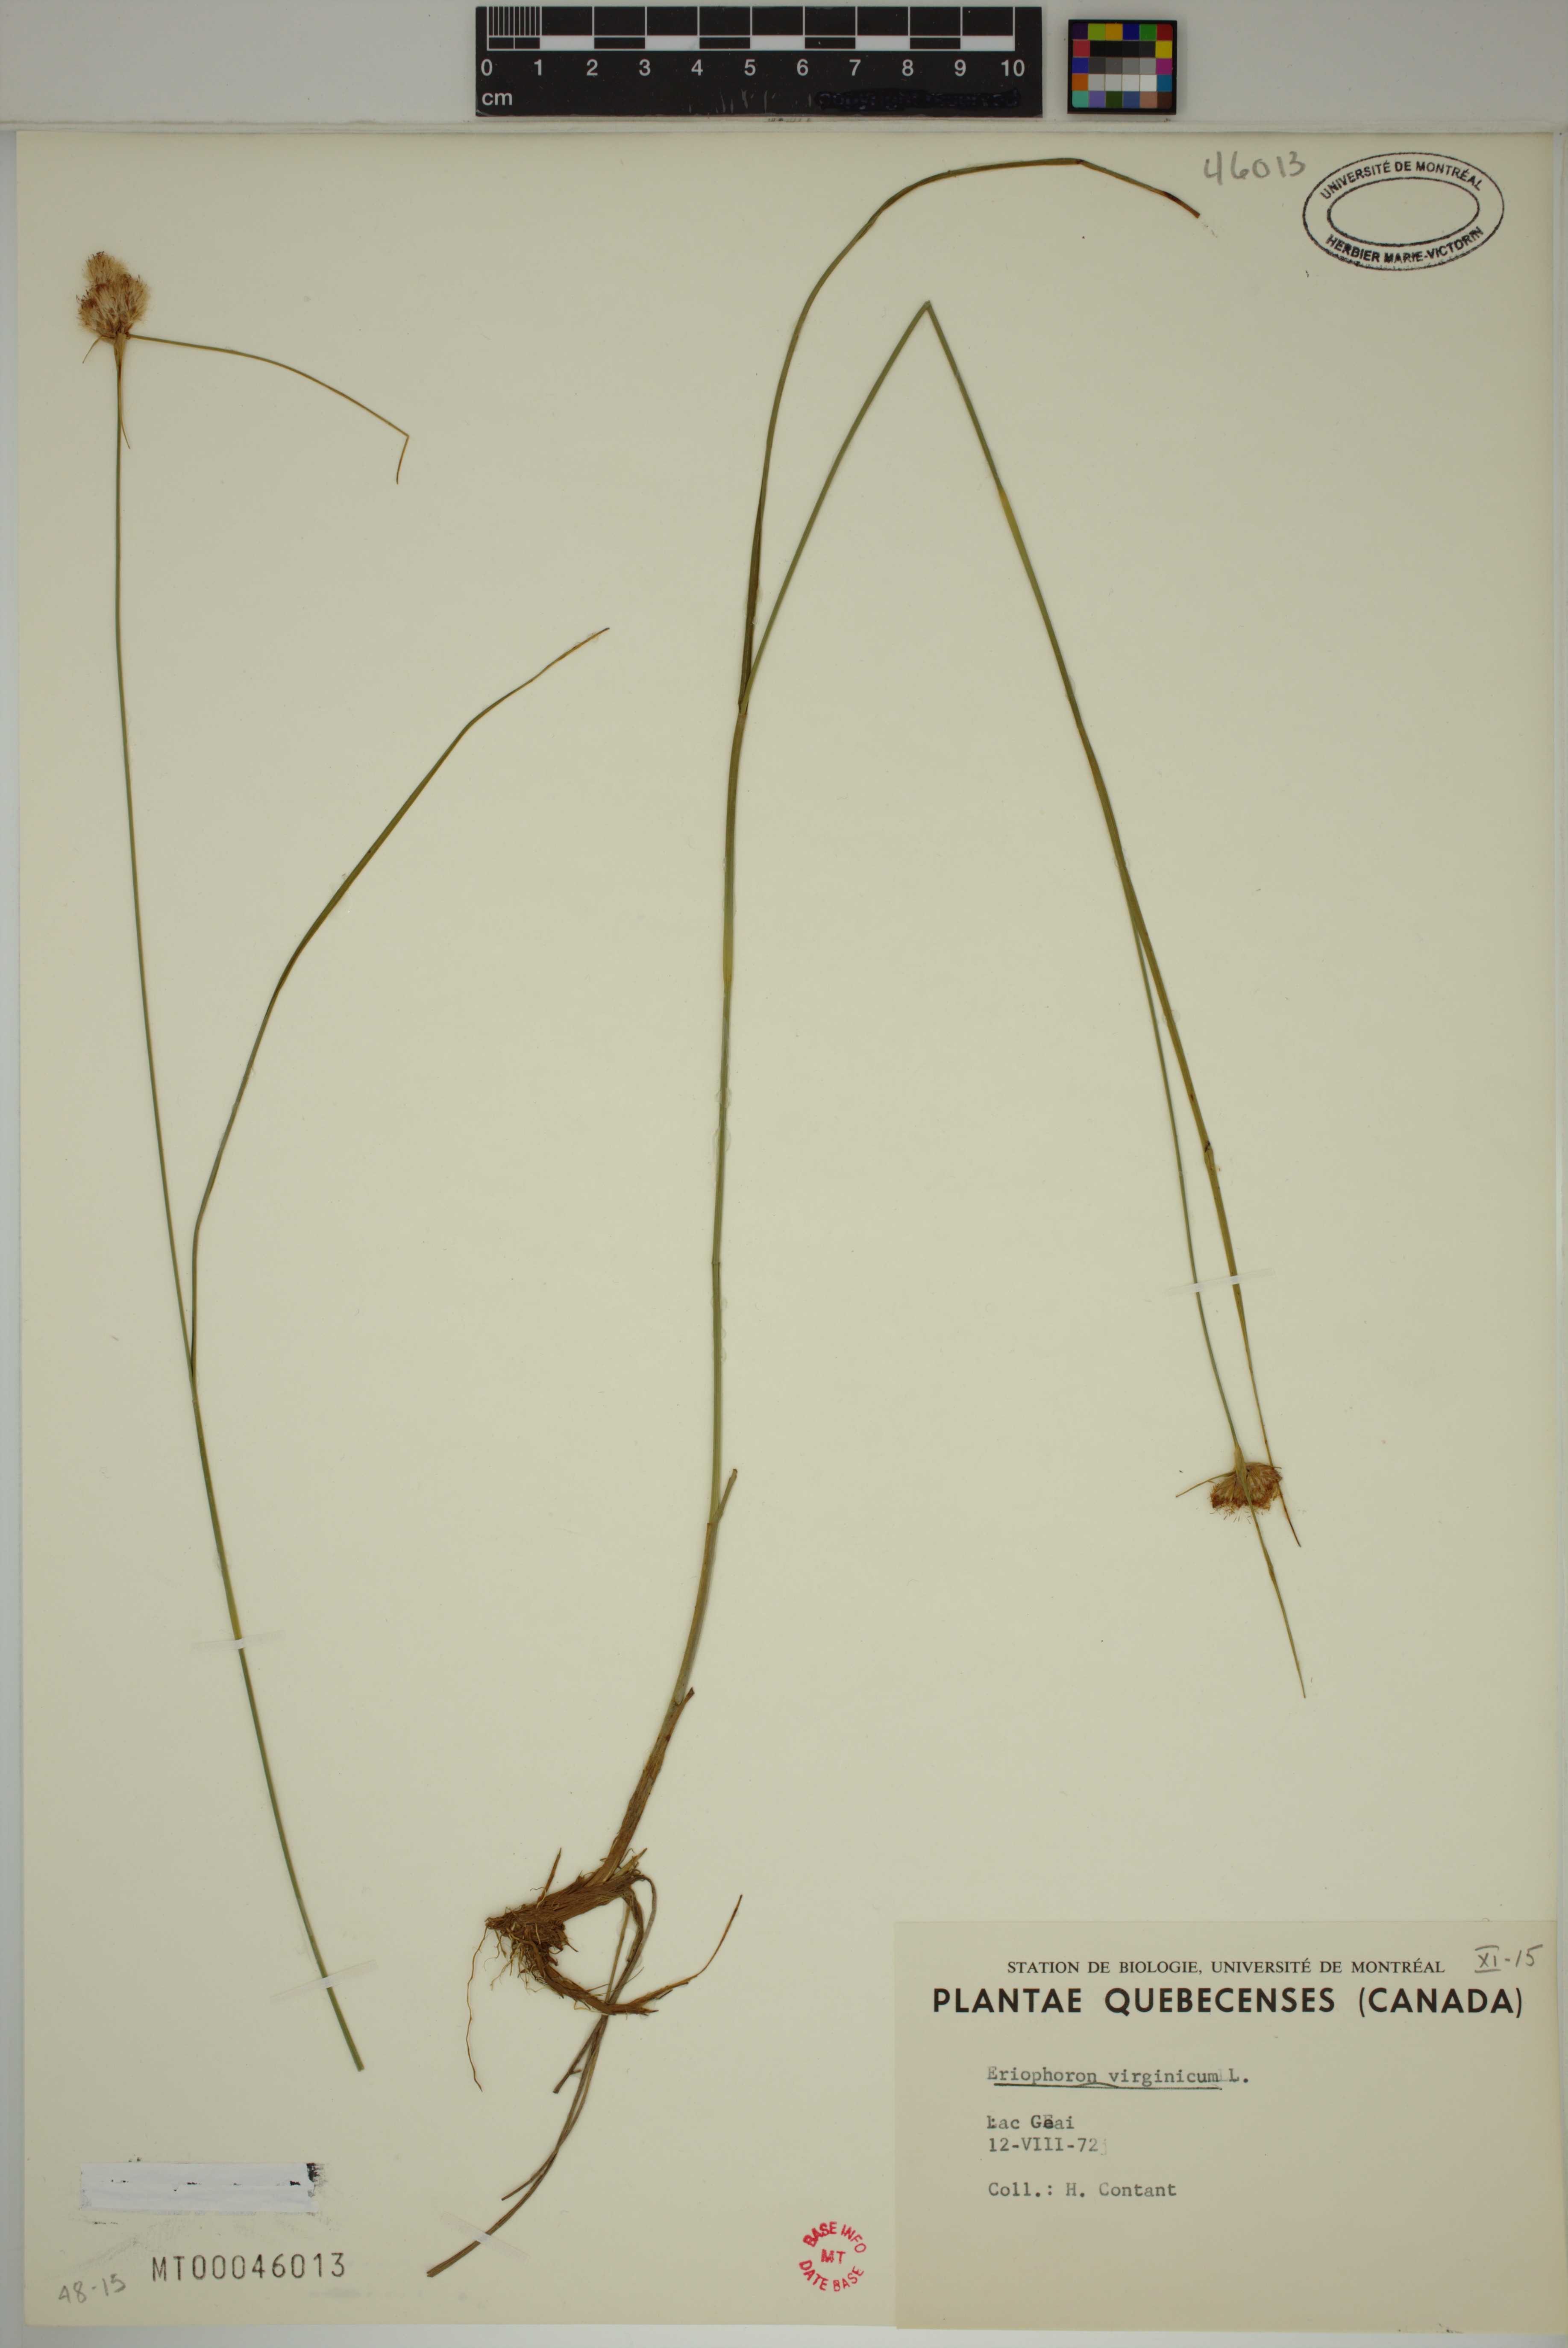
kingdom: Plantae
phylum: Tracheophyta
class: Liliopsida
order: Poales
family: Cyperaceae
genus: Eriophorum
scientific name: Eriophorum virginicum
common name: Tawny cottongrass
